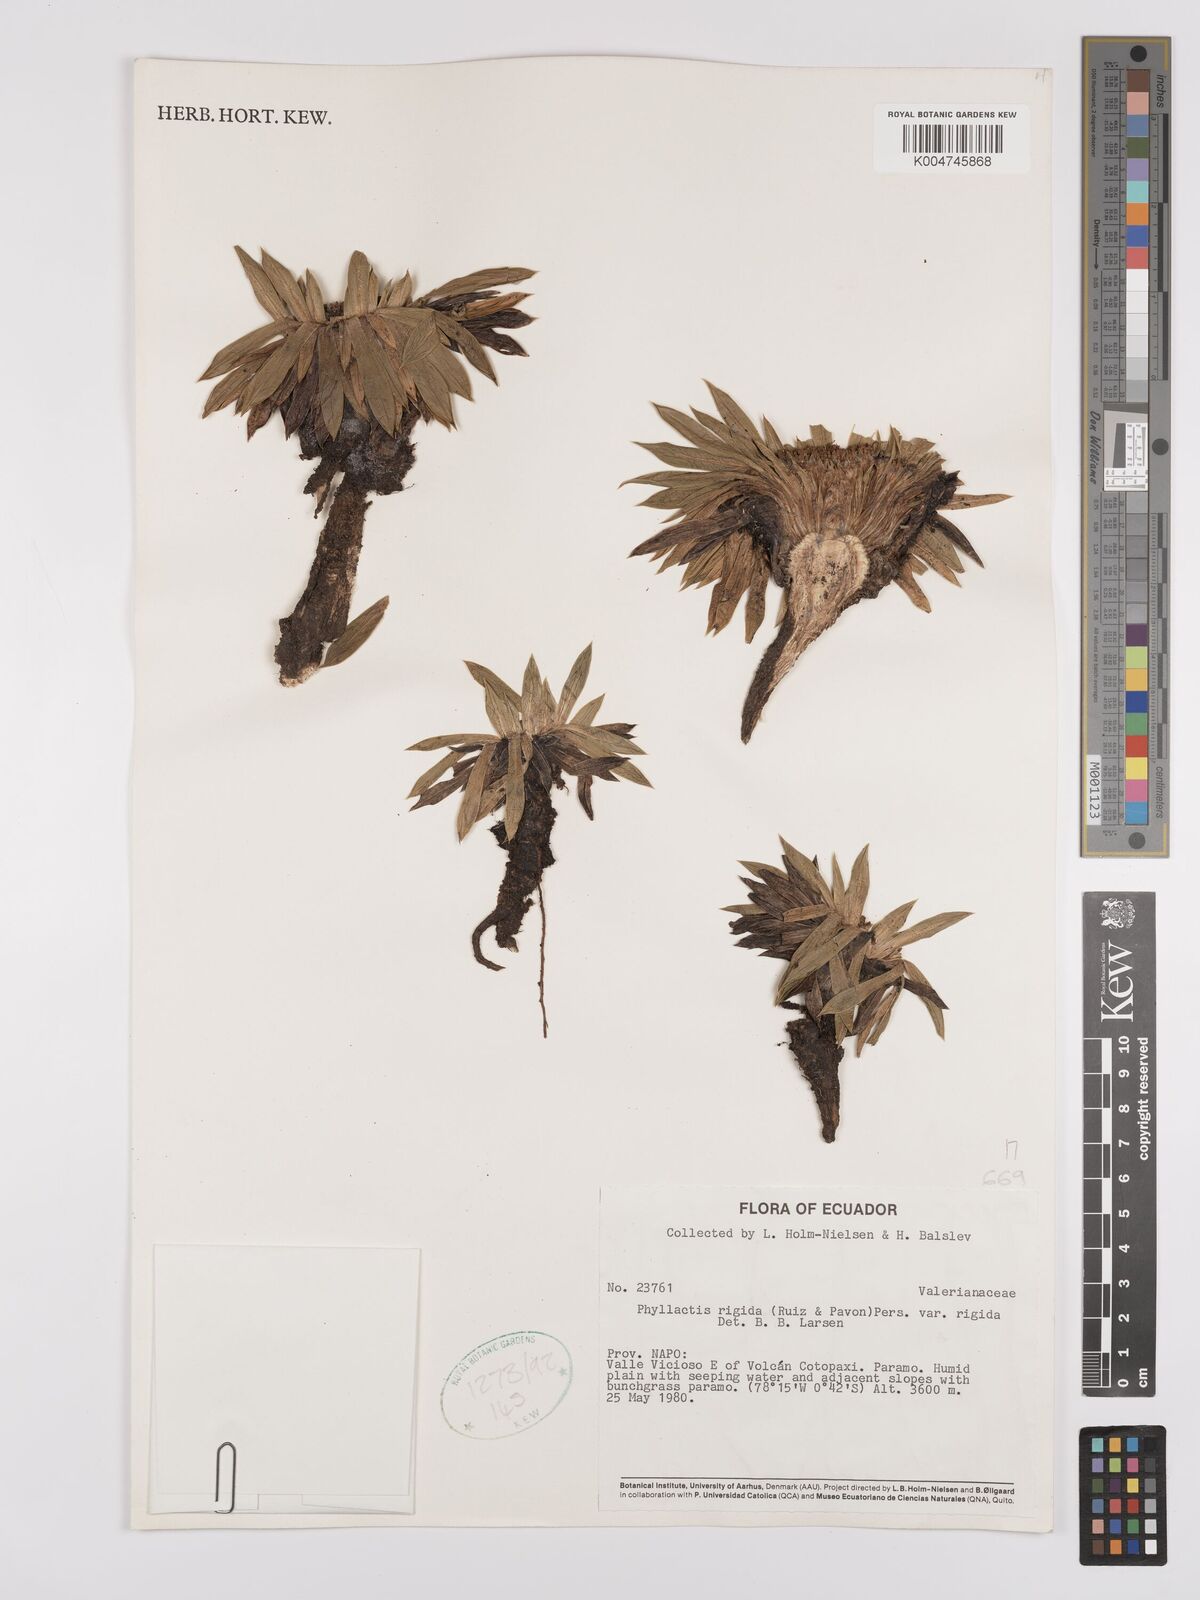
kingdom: Plantae
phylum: Tracheophyta
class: Magnoliopsida
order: Dipsacales
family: Caprifoliaceae
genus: Valeriana
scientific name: Valeriana rigida
